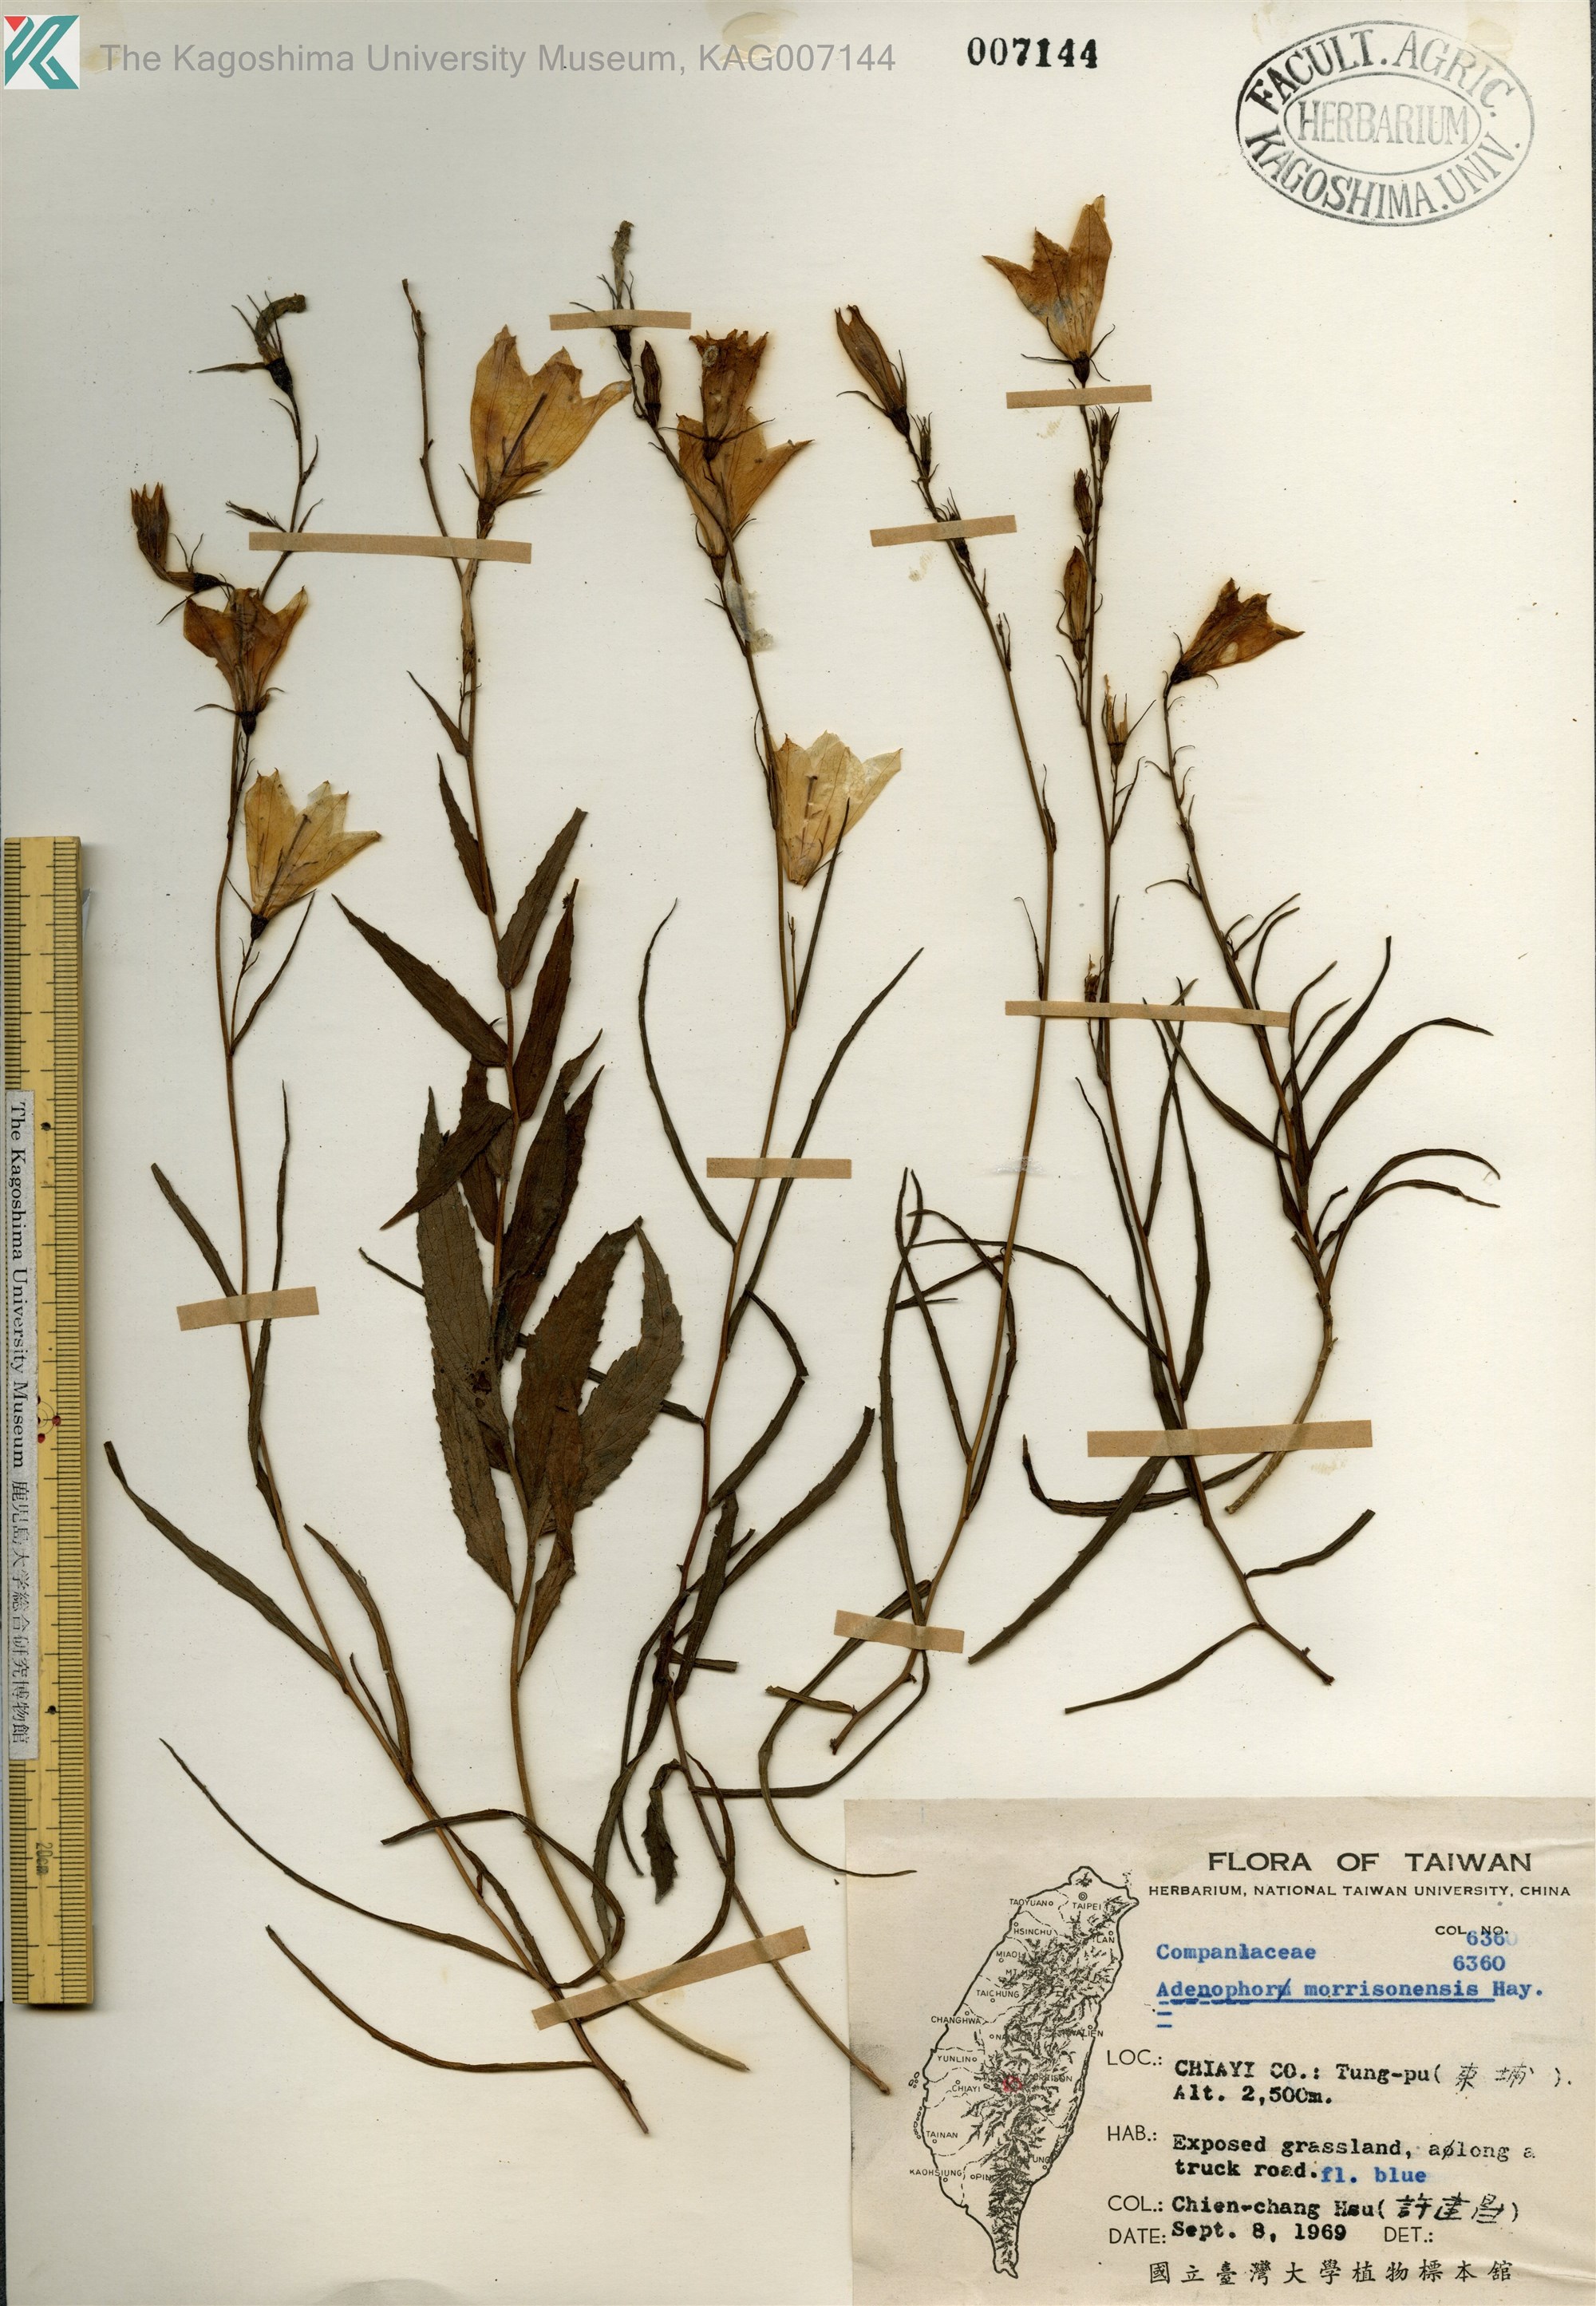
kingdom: Plantae
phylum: Tracheophyta
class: Magnoliopsida
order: Asterales
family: Campanulaceae
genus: Adenophora
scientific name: Adenophora morrisonensis
